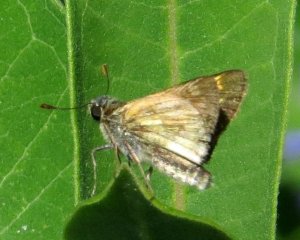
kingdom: Animalia
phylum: Arthropoda
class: Insecta
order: Lepidoptera
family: Hesperiidae
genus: Polites
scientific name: Polites coras
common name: Peck's Skipper
